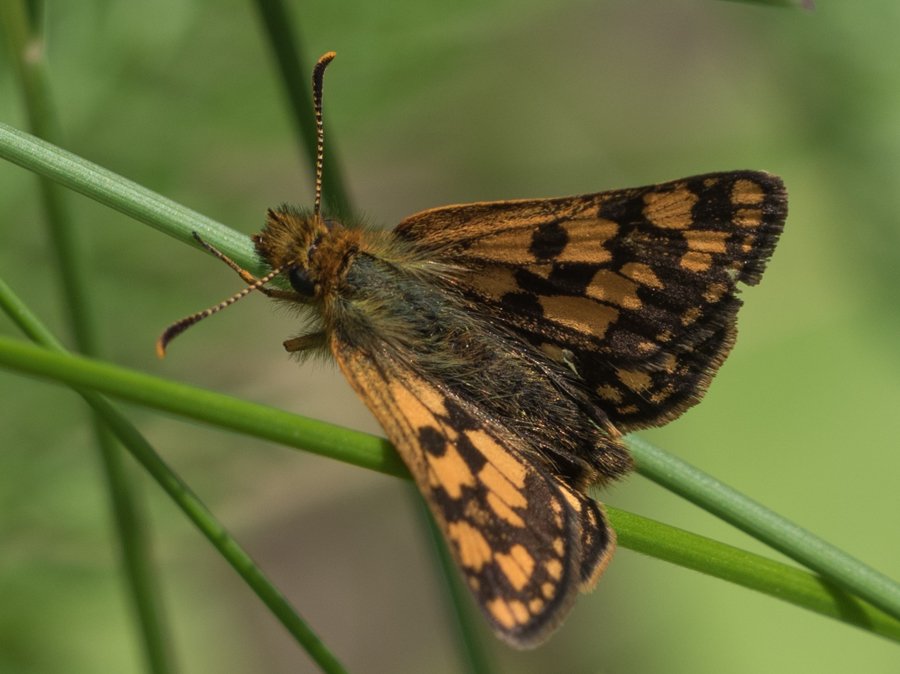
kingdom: Animalia
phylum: Arthropoda
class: Insecta
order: Lepidoptera
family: Hesperiidae
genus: Carterocephalus
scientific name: Carterocephalus palaemon
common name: Chequered Skipper
